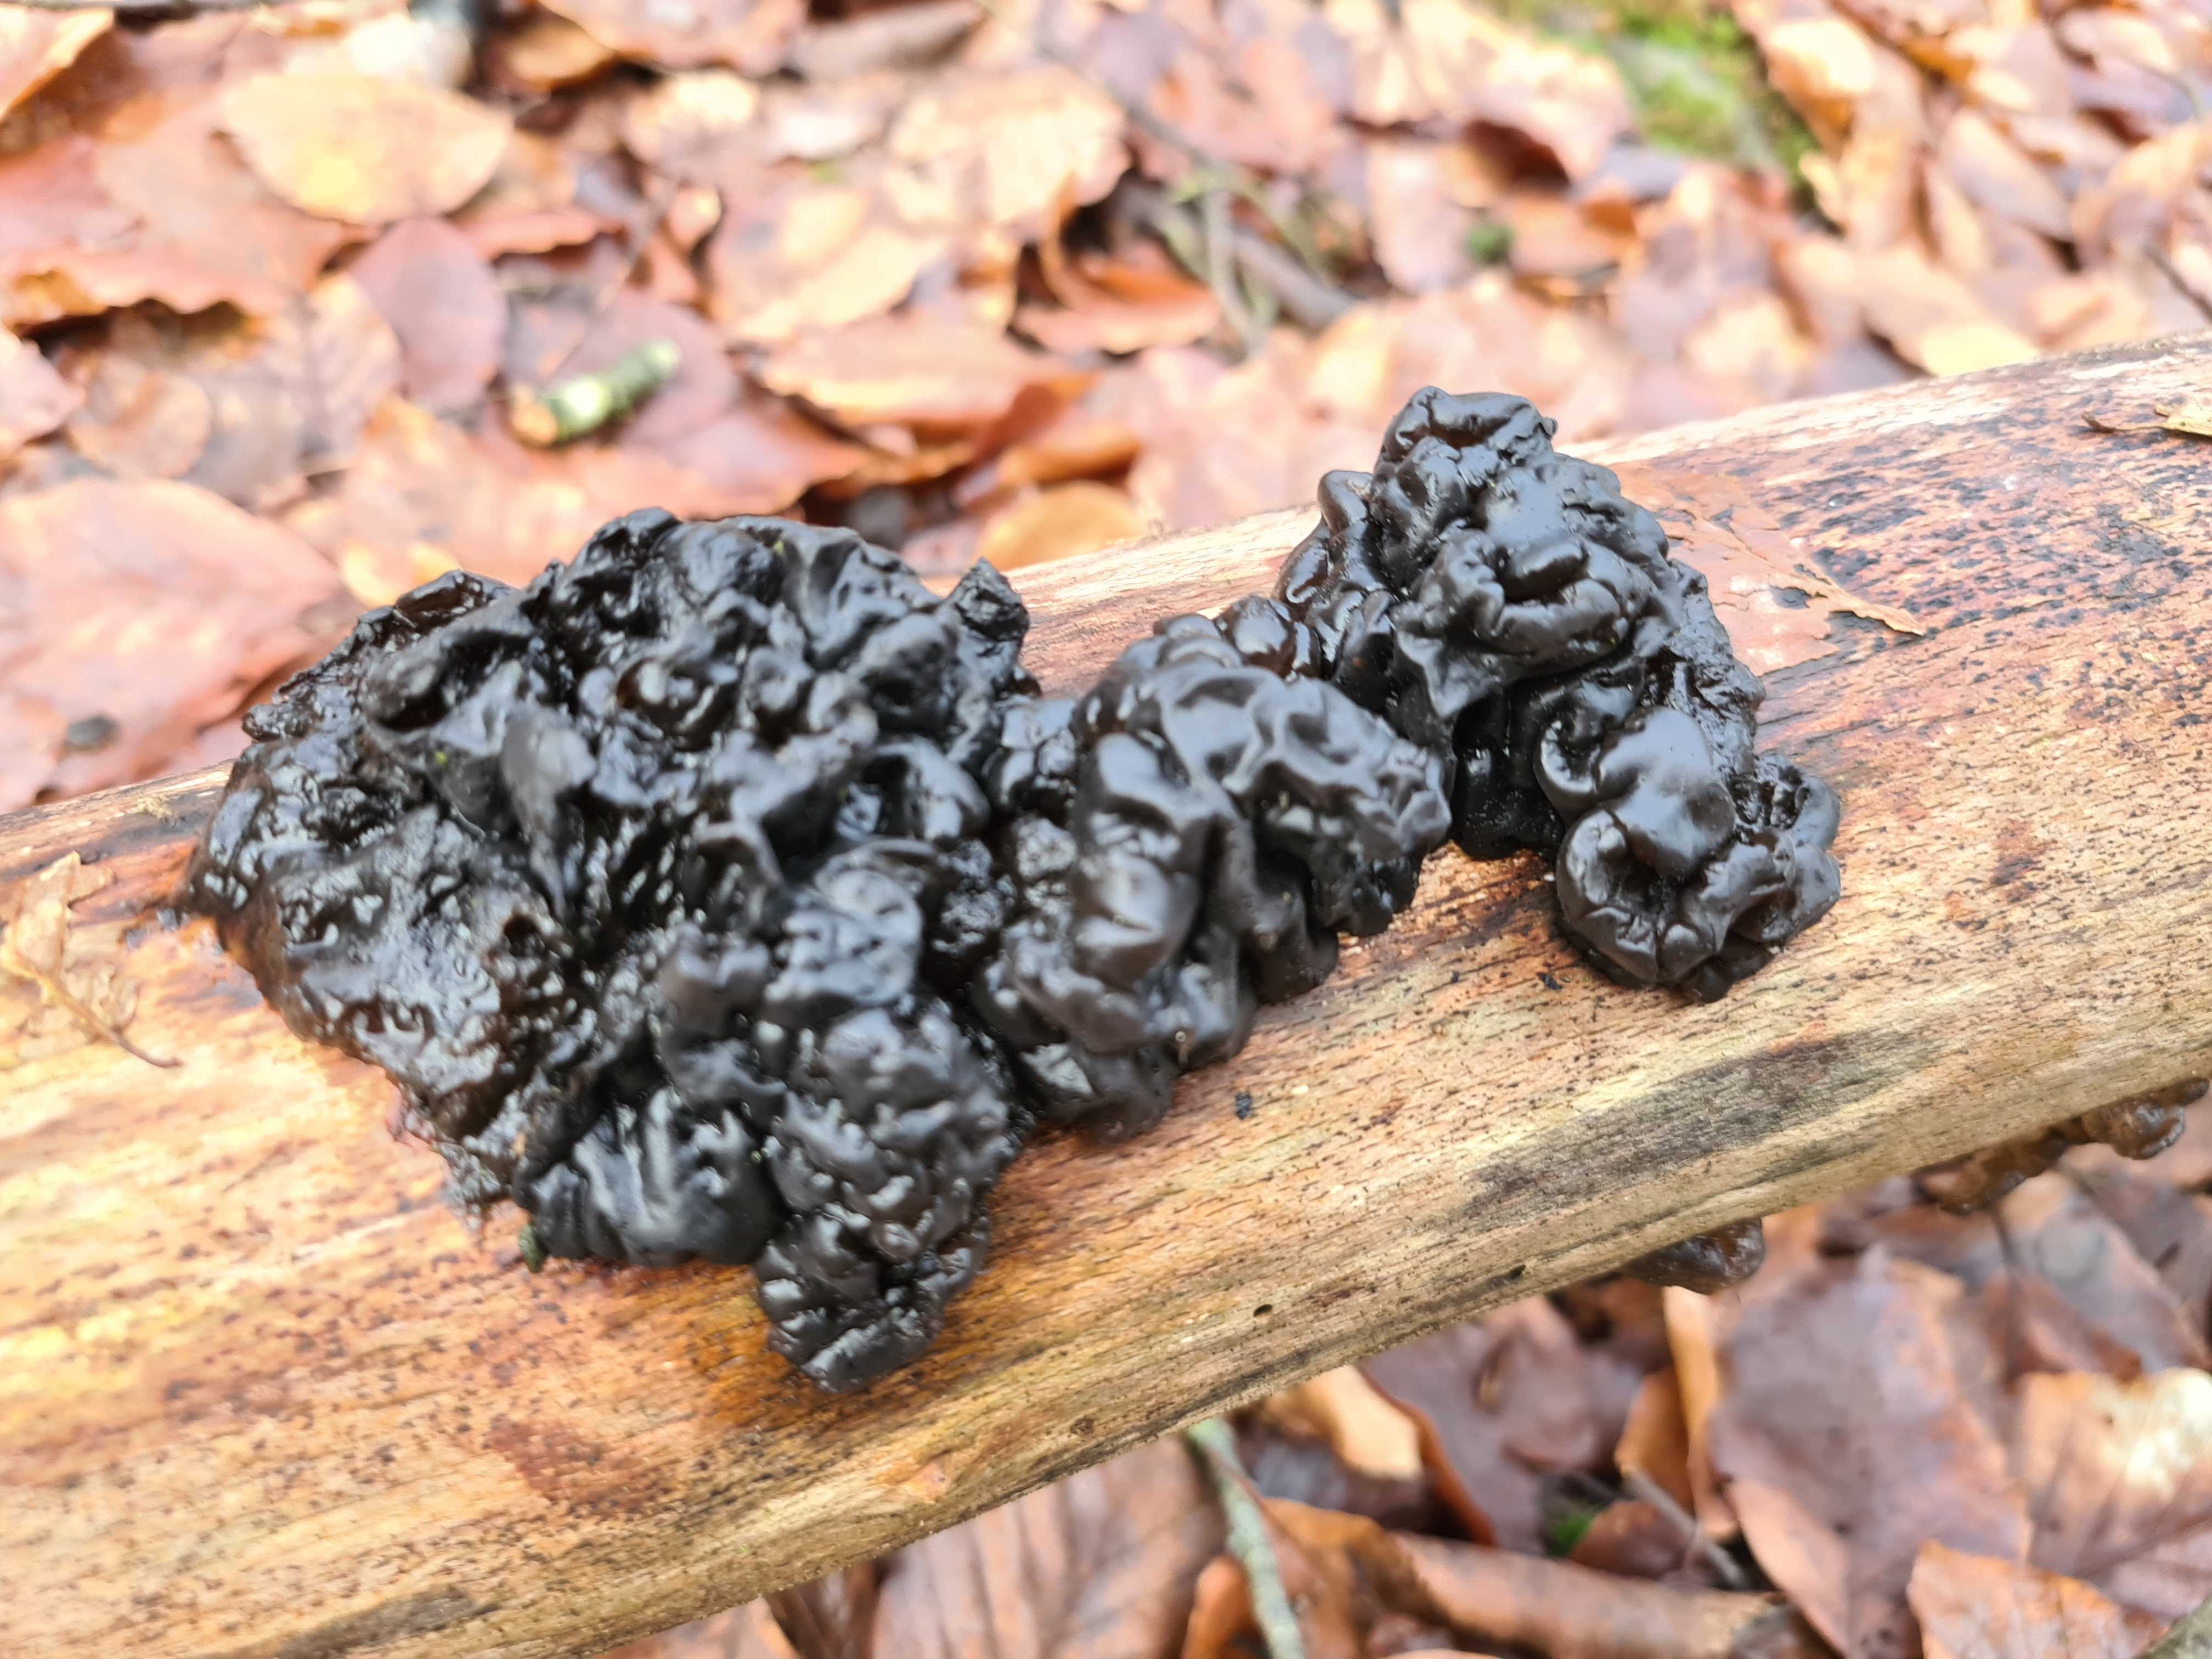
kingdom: Fungi
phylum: Basidiomycota
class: Agaricomycetes
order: Auriculariales
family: Auriculariaceae
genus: Exidia
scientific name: Exidia nigricans
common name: almindelig bævretop
